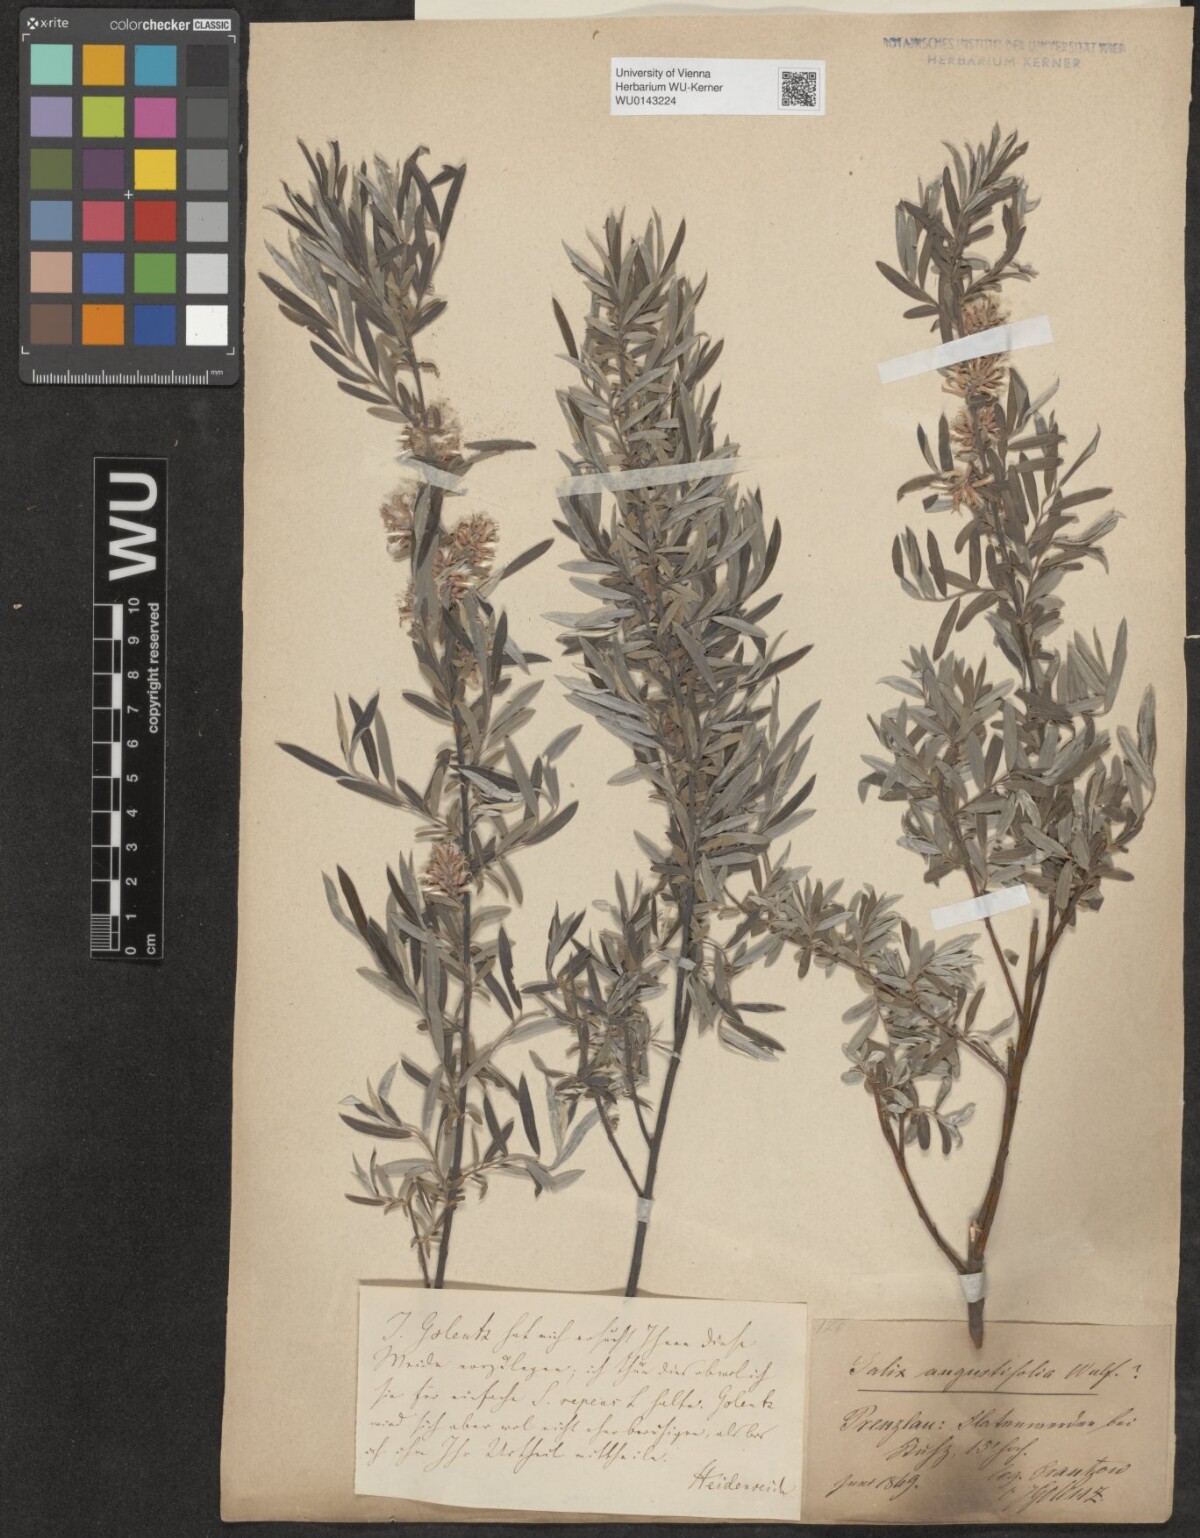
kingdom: Plantae
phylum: Tracheophyta
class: Magnoliopsida
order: Malpighiales
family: Salicaceae
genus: Salix
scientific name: Salix repens
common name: Creeping willow
